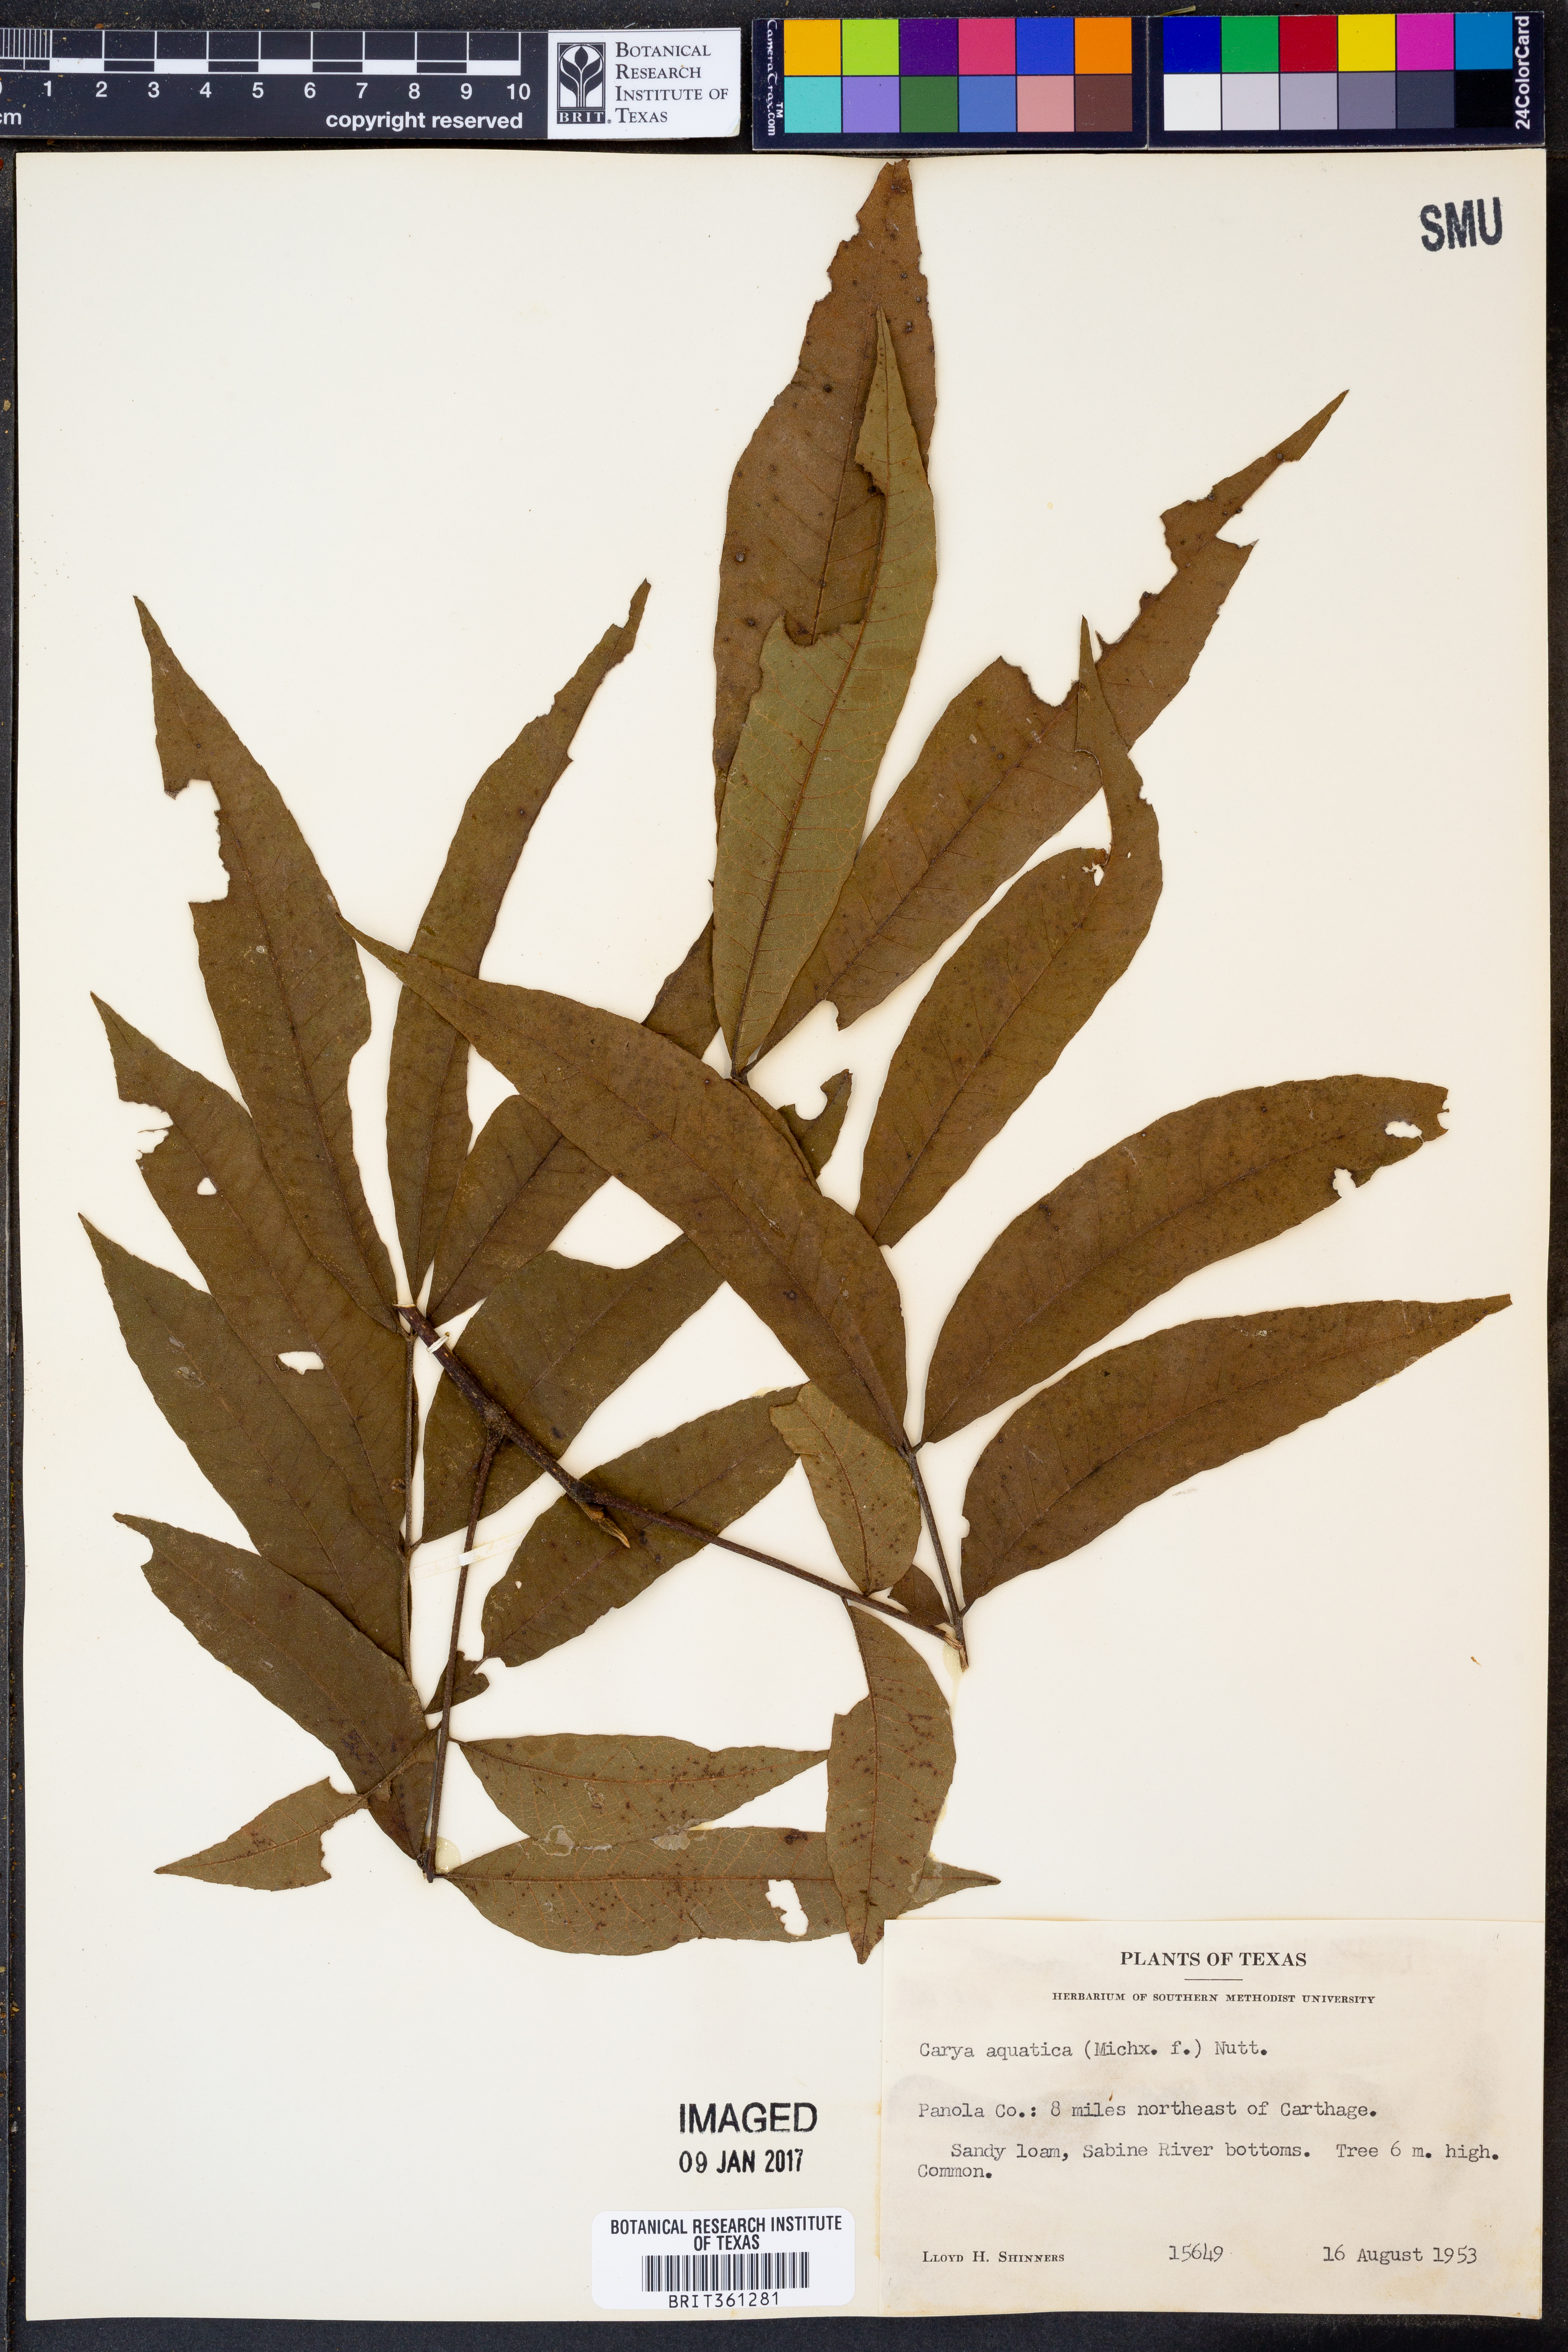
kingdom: Plantae
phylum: Tracheophyta
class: Magnoliopsida
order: Fagales
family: Juglandaceae
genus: Carya
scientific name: Carya aquatica
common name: Water hickory
